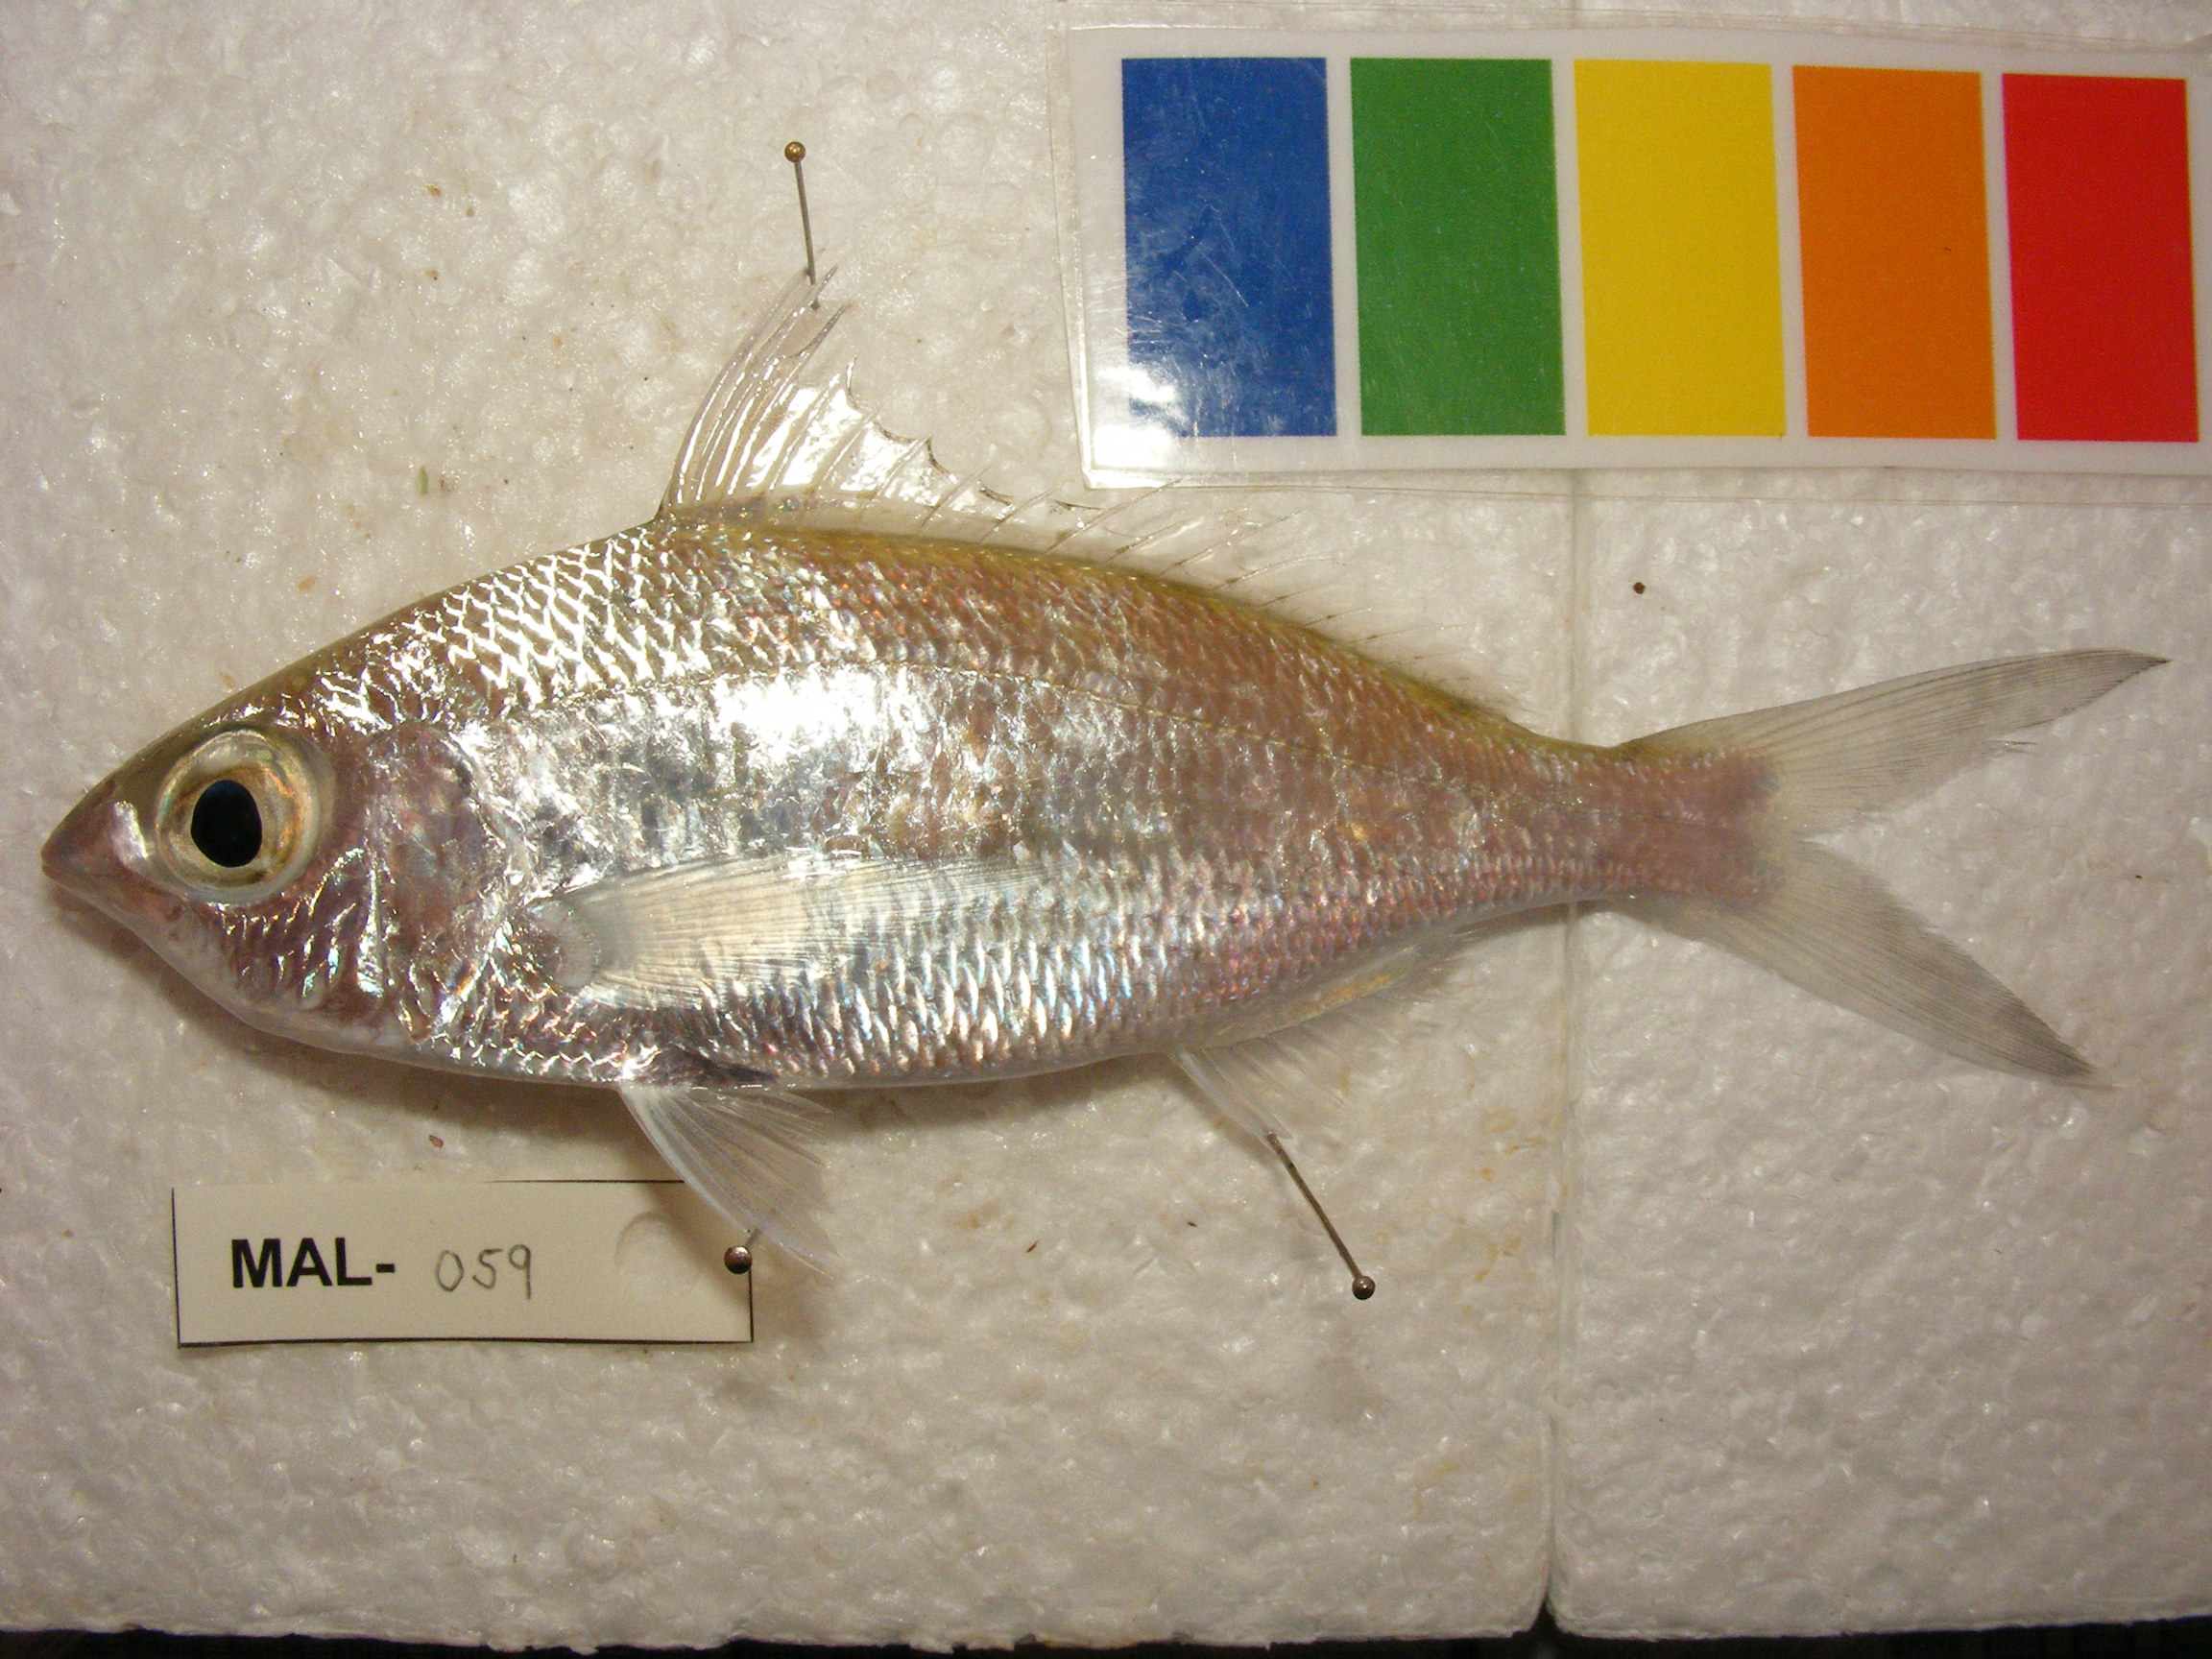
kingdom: Animalia
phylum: Chordata
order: Perciformes
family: Gerreidae
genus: Gerres
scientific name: Gerres oblongus
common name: Large-bodied silver-biddy
